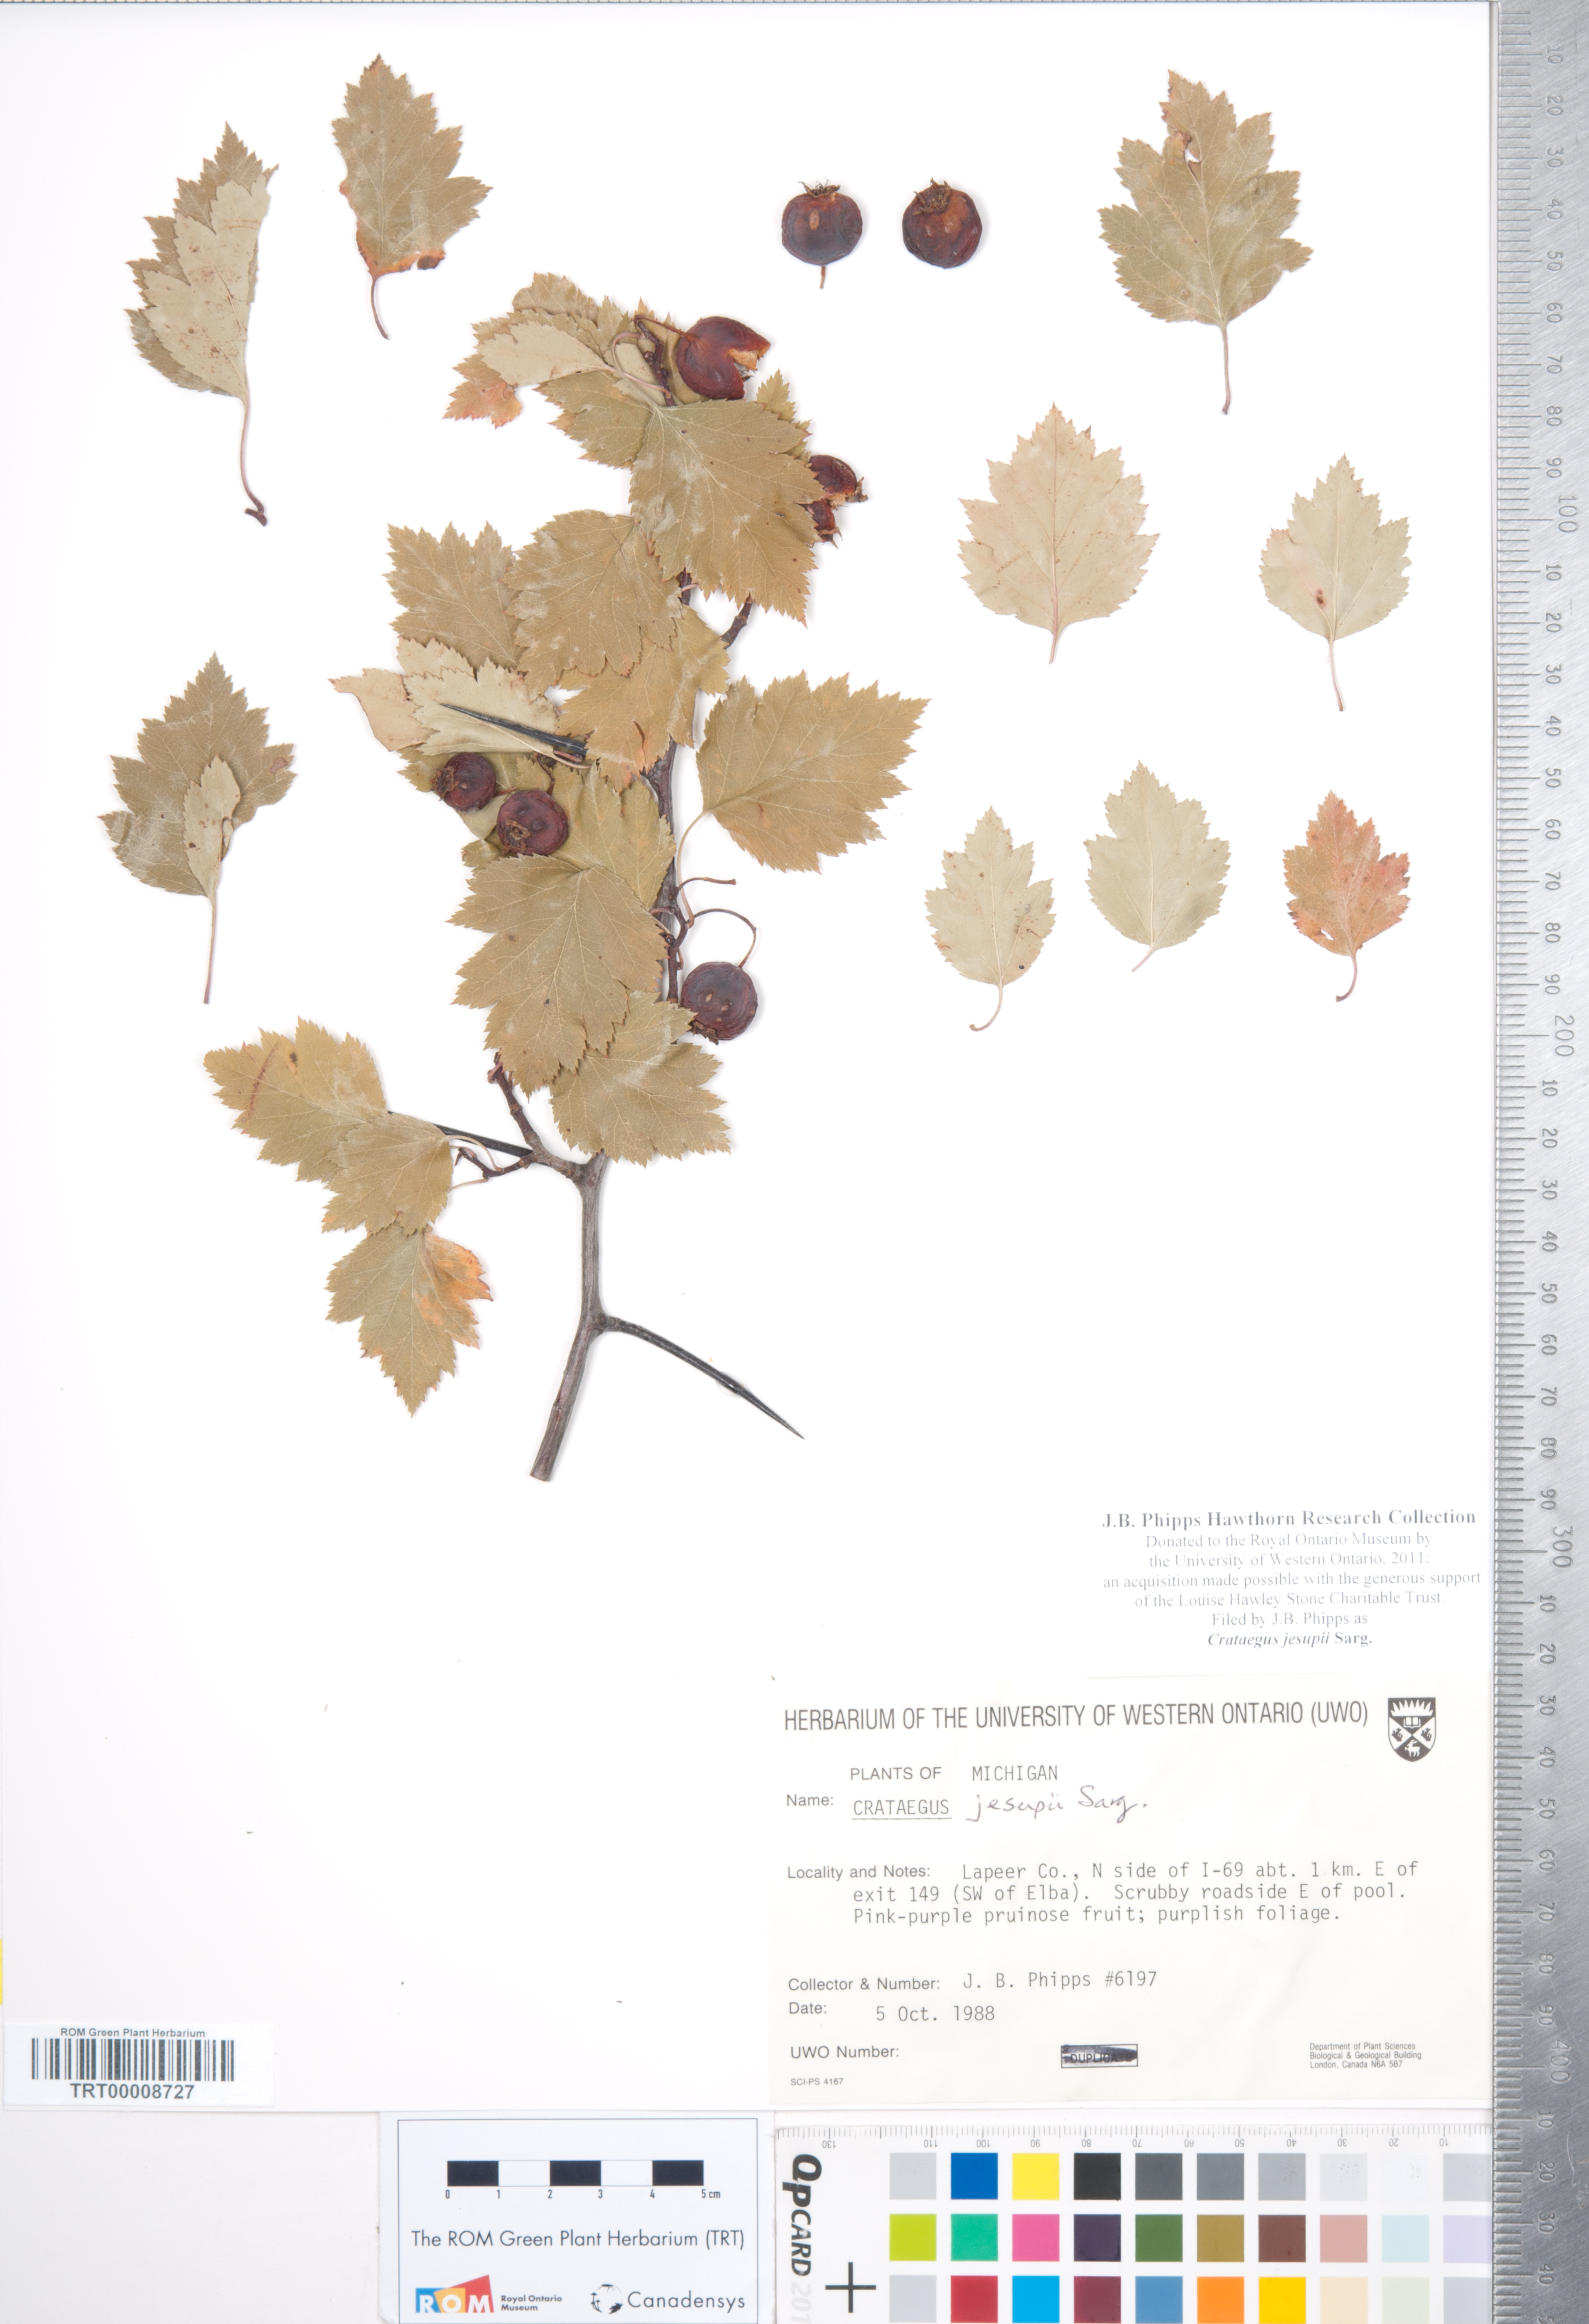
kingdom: Plantae
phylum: Tracheophyta
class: Magnoliopsida
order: Rosales
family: Rosaceae
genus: Crataegus
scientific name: Crataegus jesupii
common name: Jesup's hawthorn
